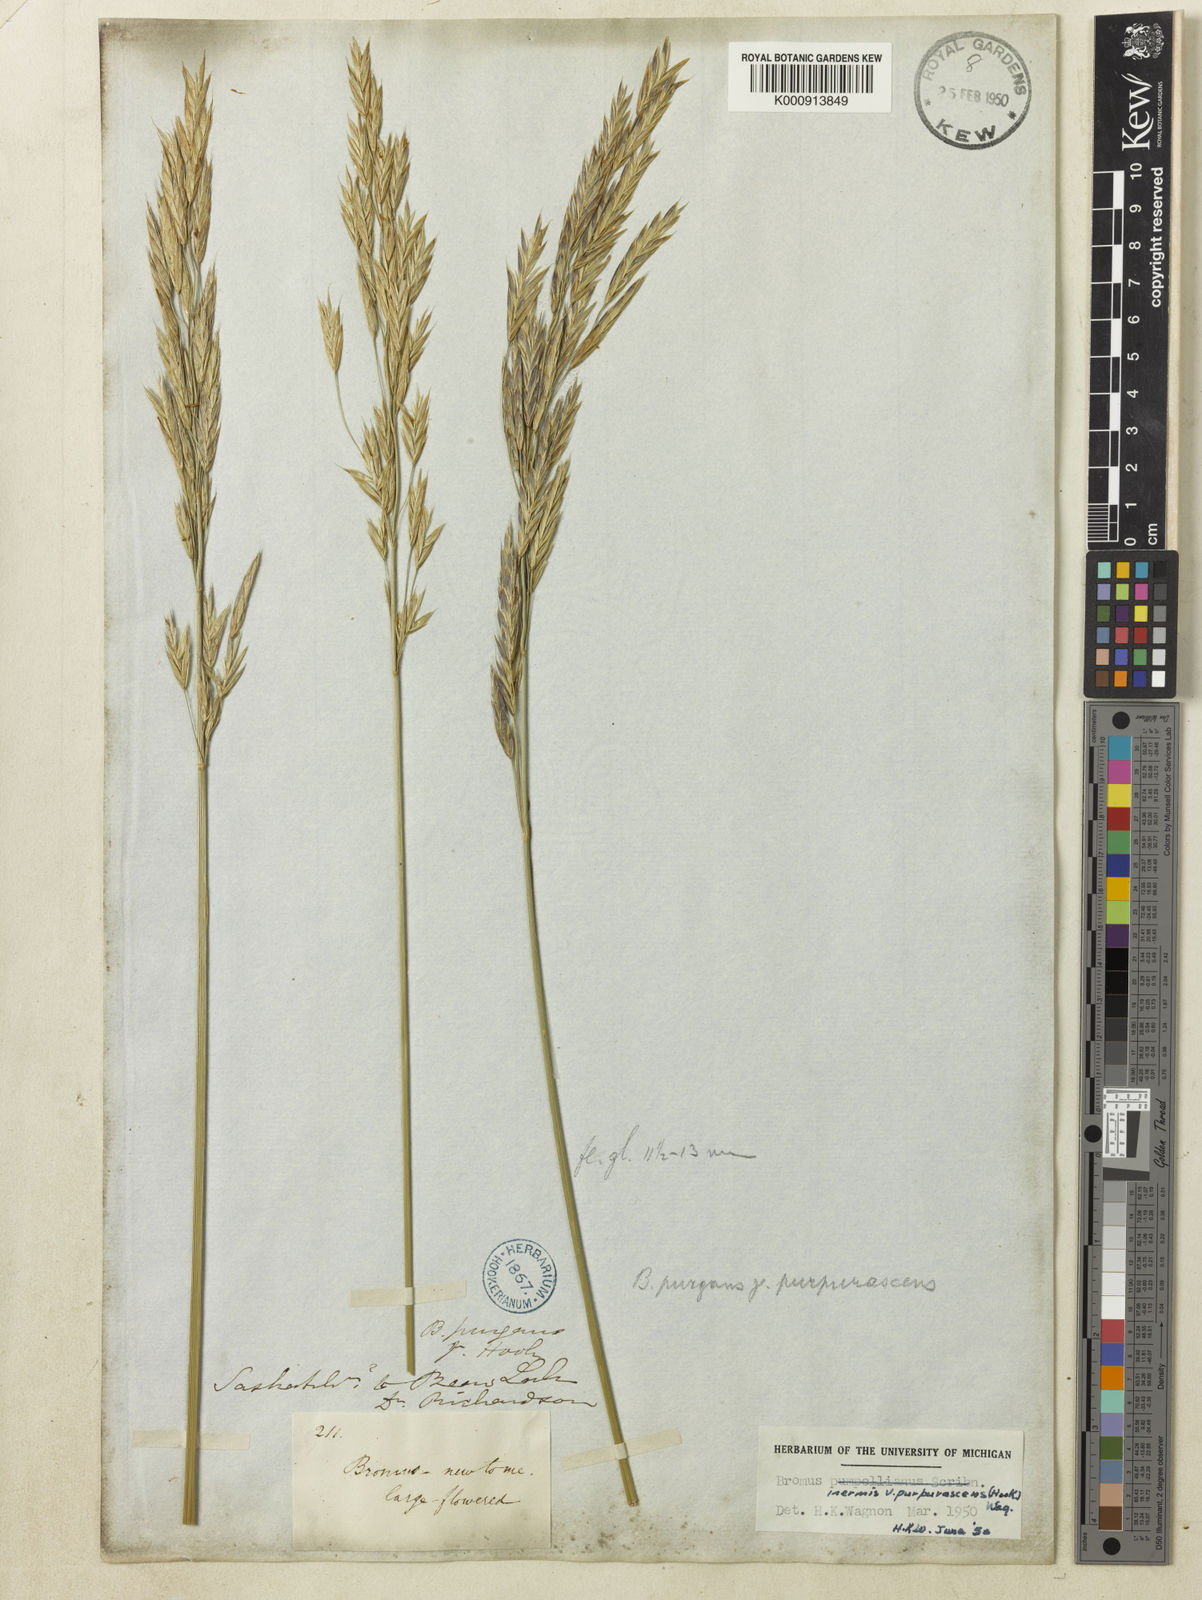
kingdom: Plantae
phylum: Tracheophyta
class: Liliopsida
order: Poales
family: Poaceae
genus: Bromus
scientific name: Bromus pumpellianus
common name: Pumpelly's brome
